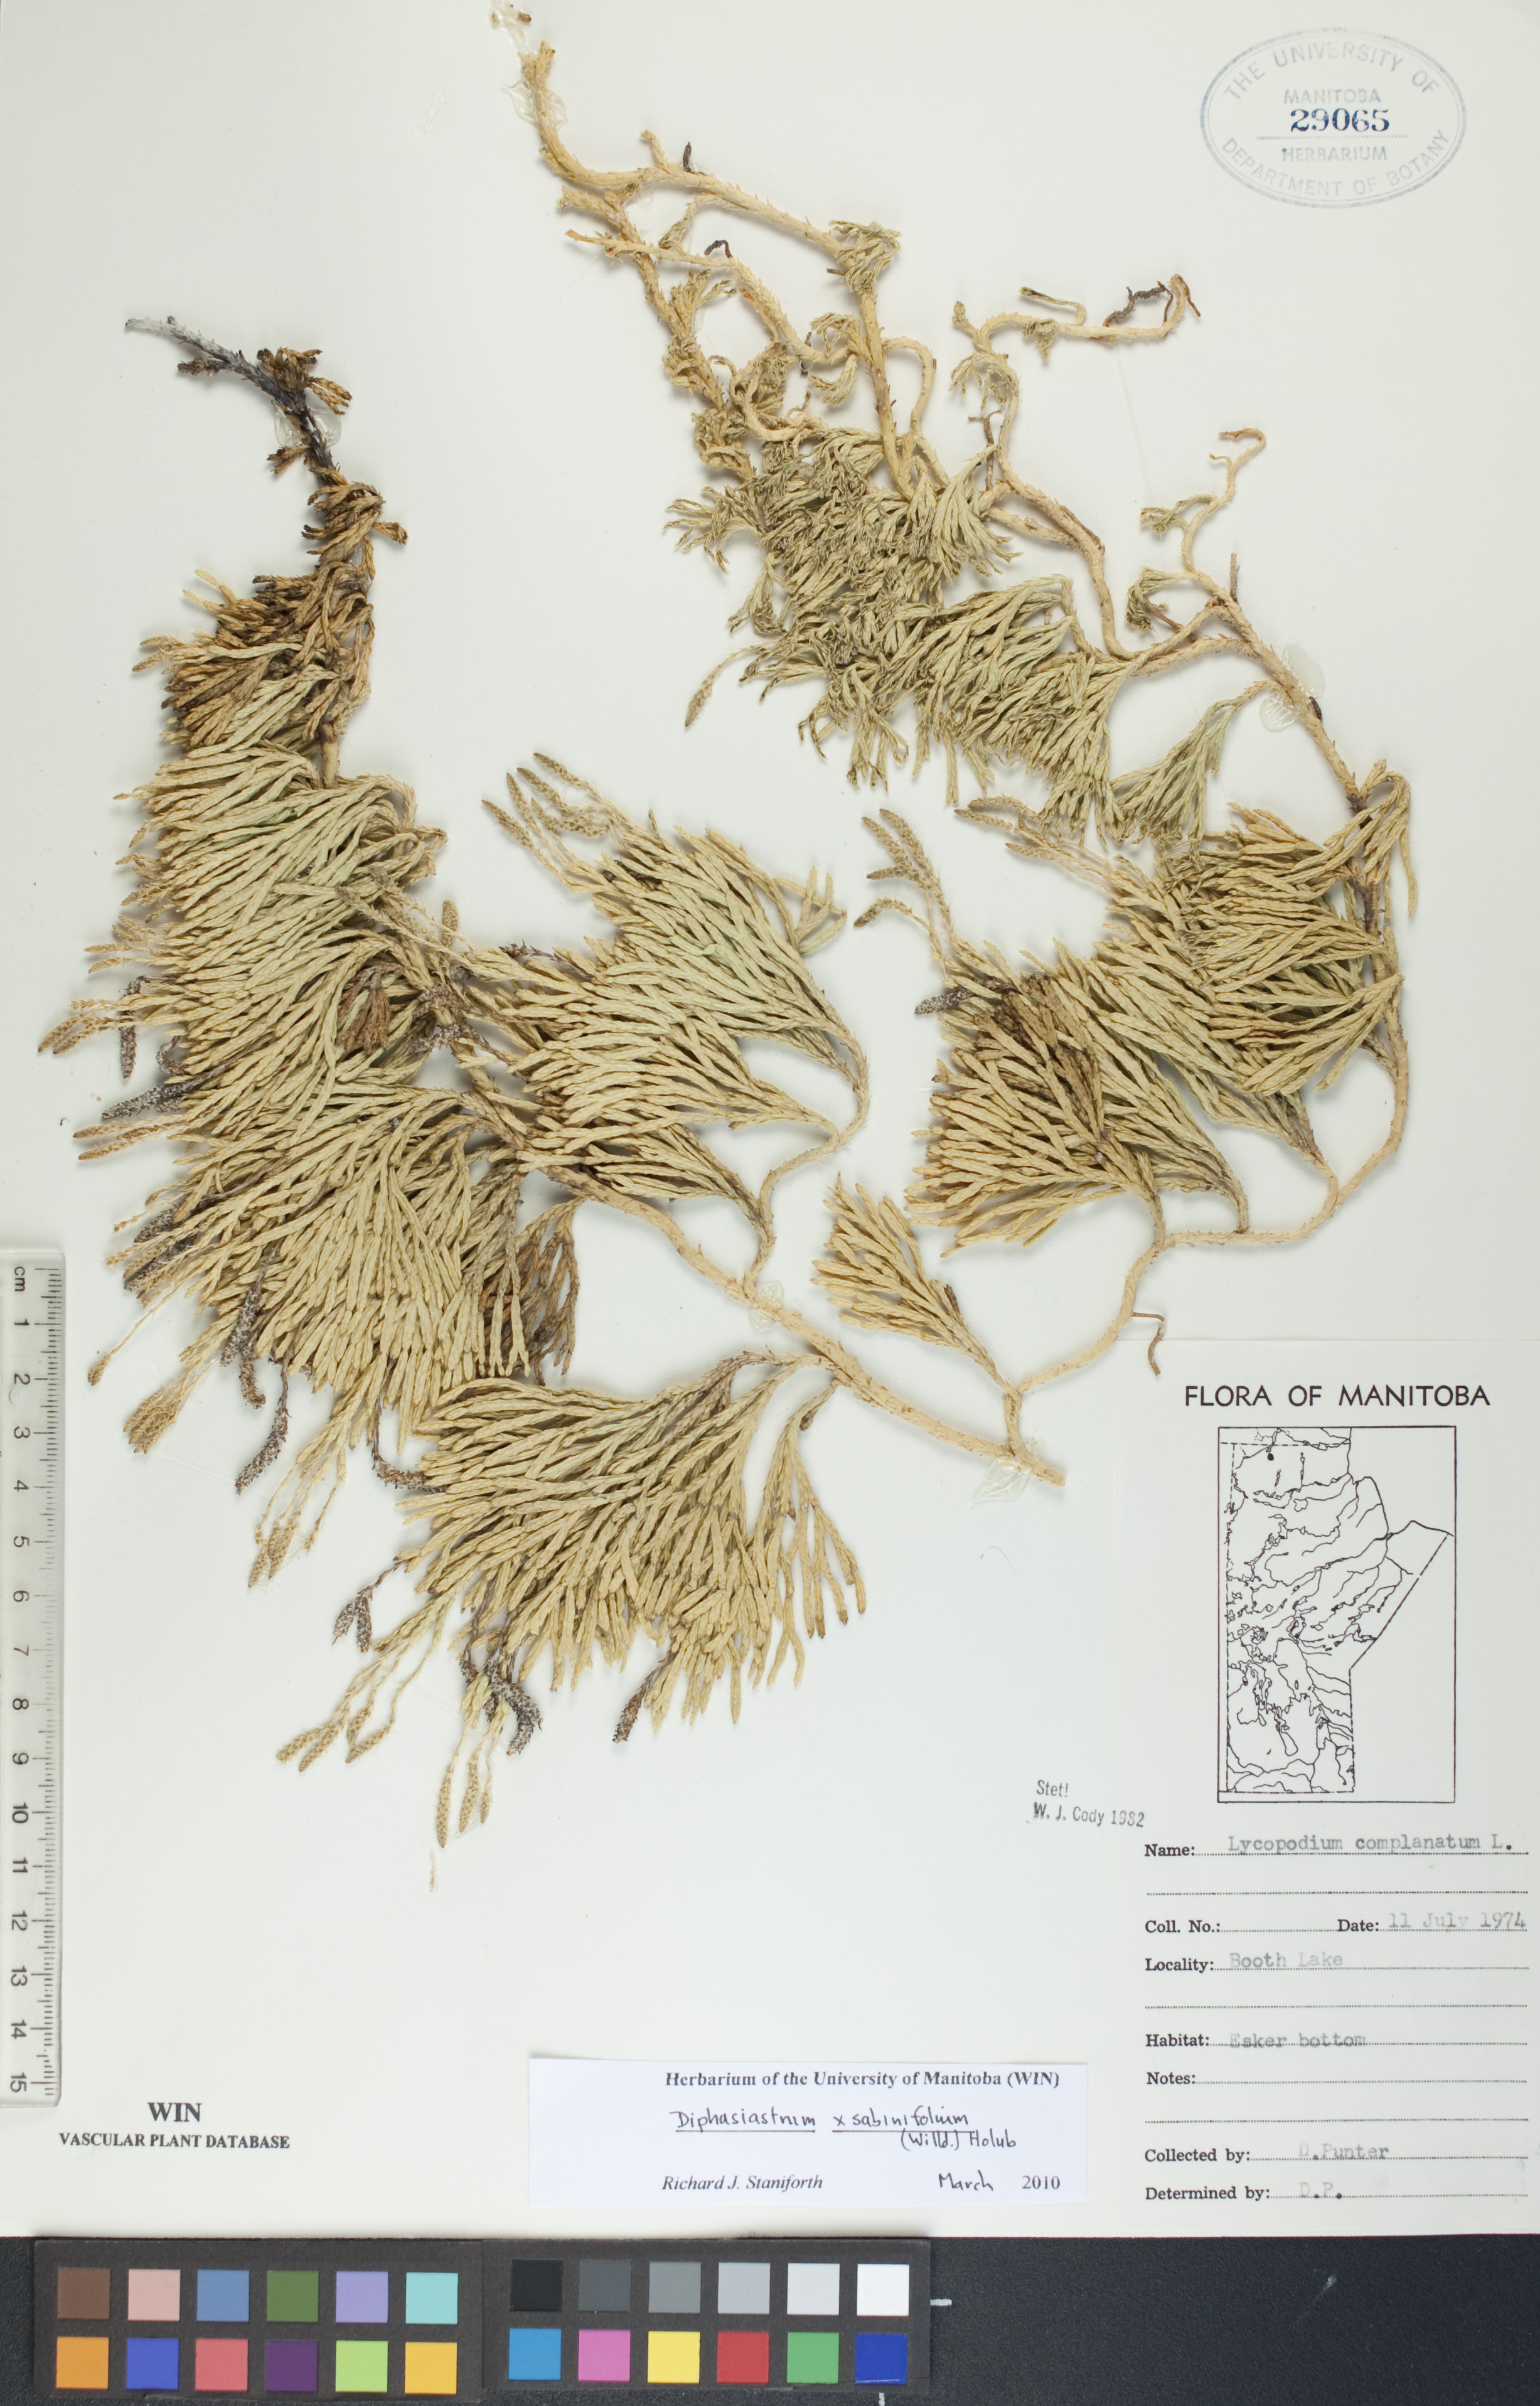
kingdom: Plantae
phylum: Tracheophyta
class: Lycopodiopsida
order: Lycopodiales
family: Lycopodiaceae
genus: Diphasiastrum
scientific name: Diphasiastrum sabinifolium
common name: Juniper clubmoss
